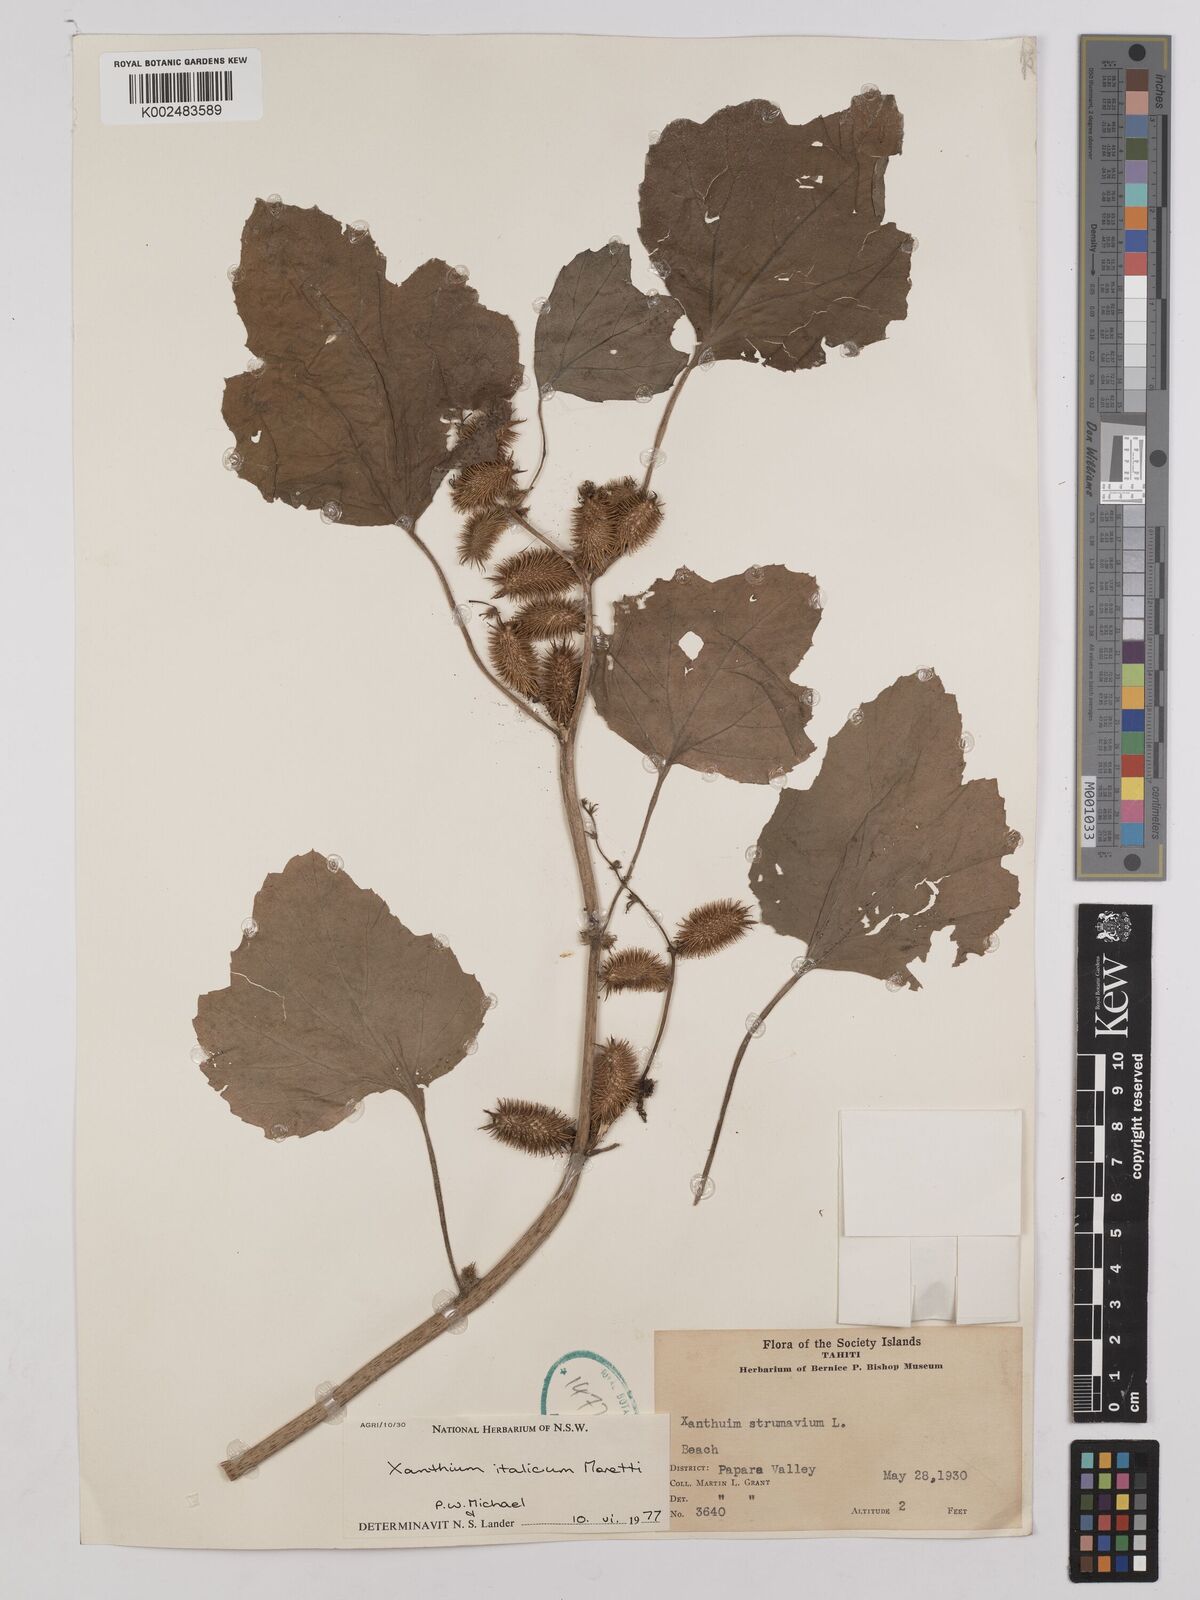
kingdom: Plantae
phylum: Tracheophyta
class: Magnoliopsida
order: Asterales
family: Asteraceae
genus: Xanthium
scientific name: Xanthium orientale
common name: Californian burr
